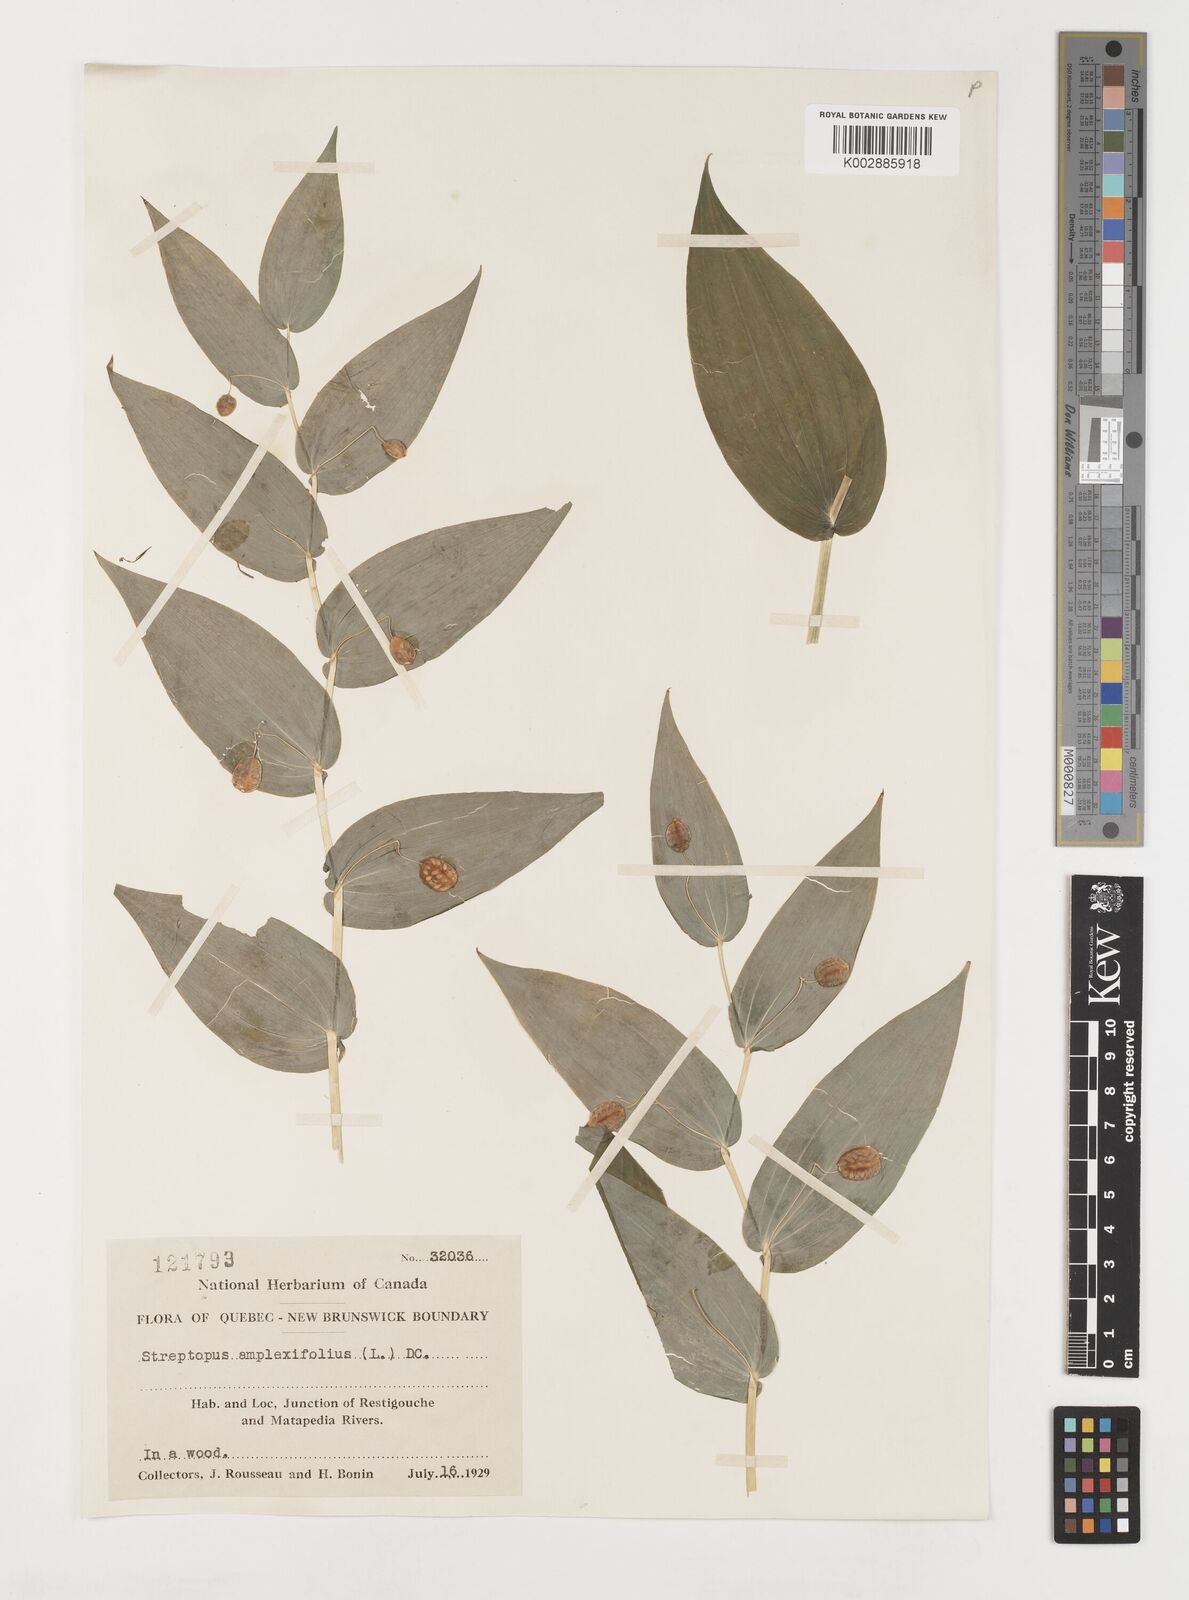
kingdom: Plantae
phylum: Tracheophyta
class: Liliopsida
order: Liliales
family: Liliaceae
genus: Streptopus
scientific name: Streptopus
